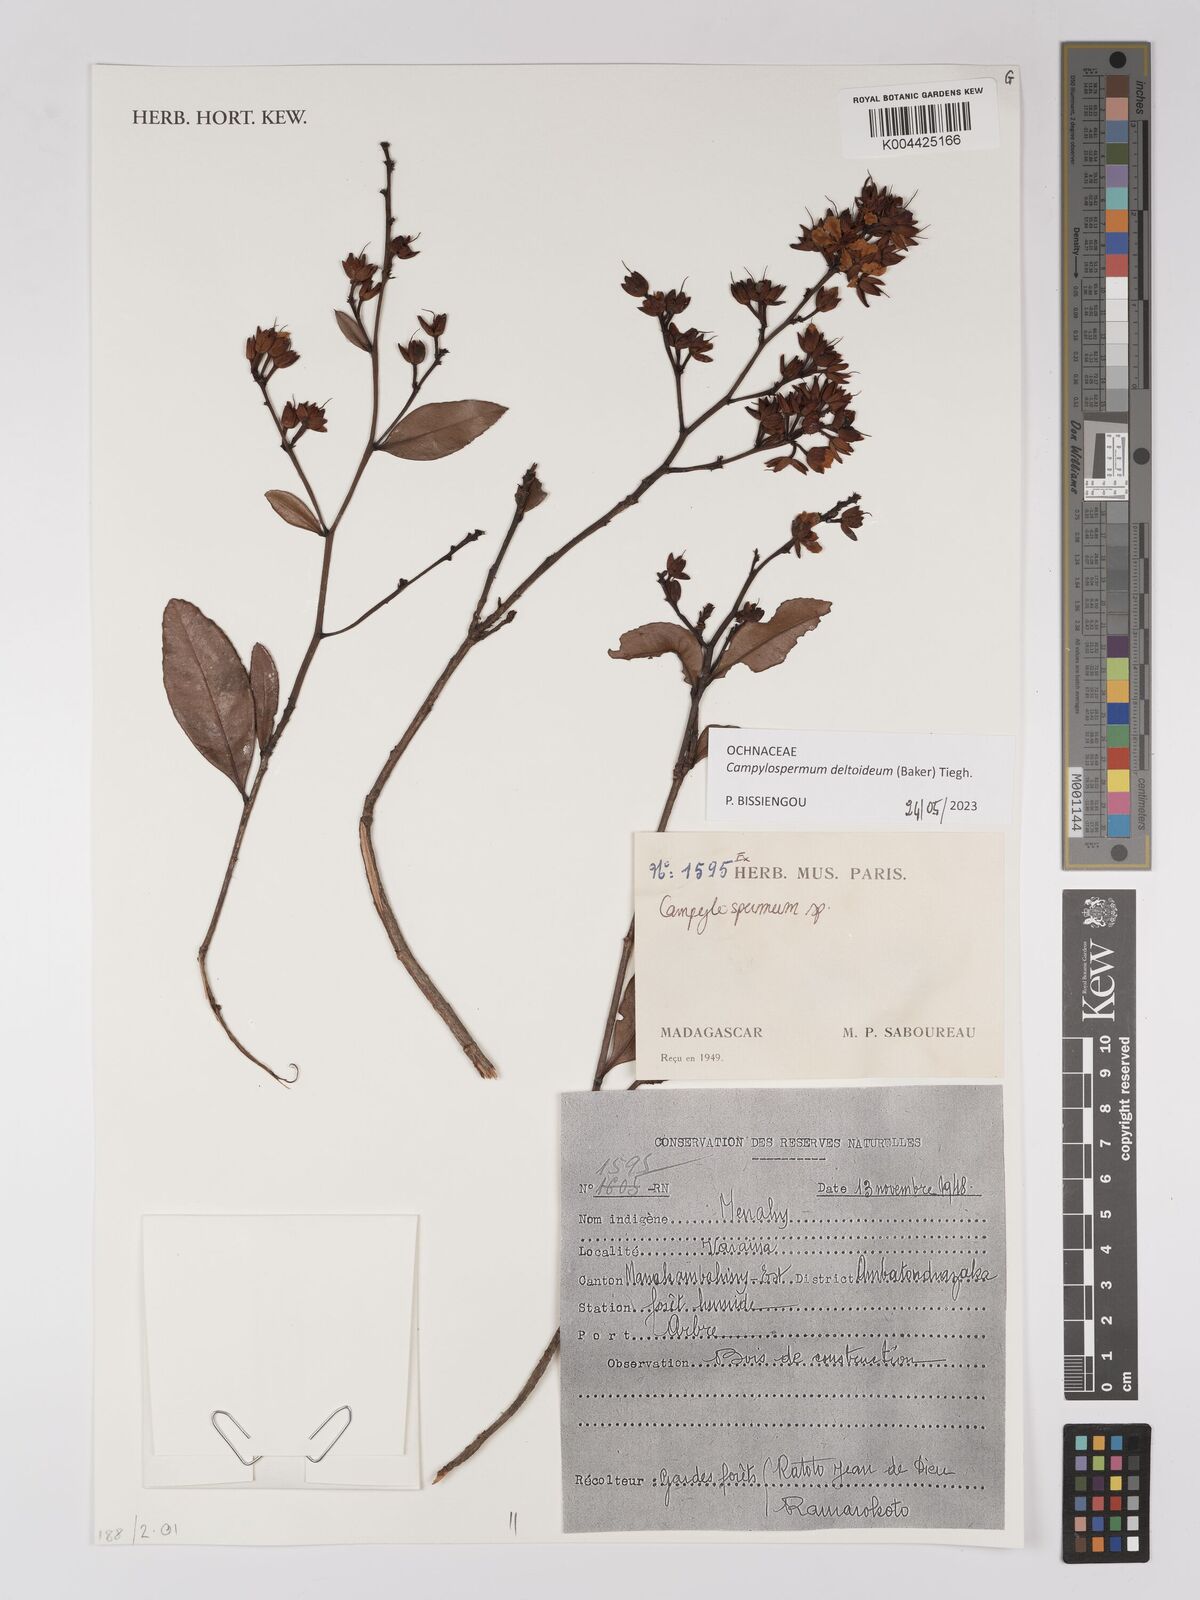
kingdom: Plantae
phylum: Tracheophyta
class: Magnoliopsida
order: Malpighiales
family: Ochnaceae
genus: Campylospermum
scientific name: Campylospermum
